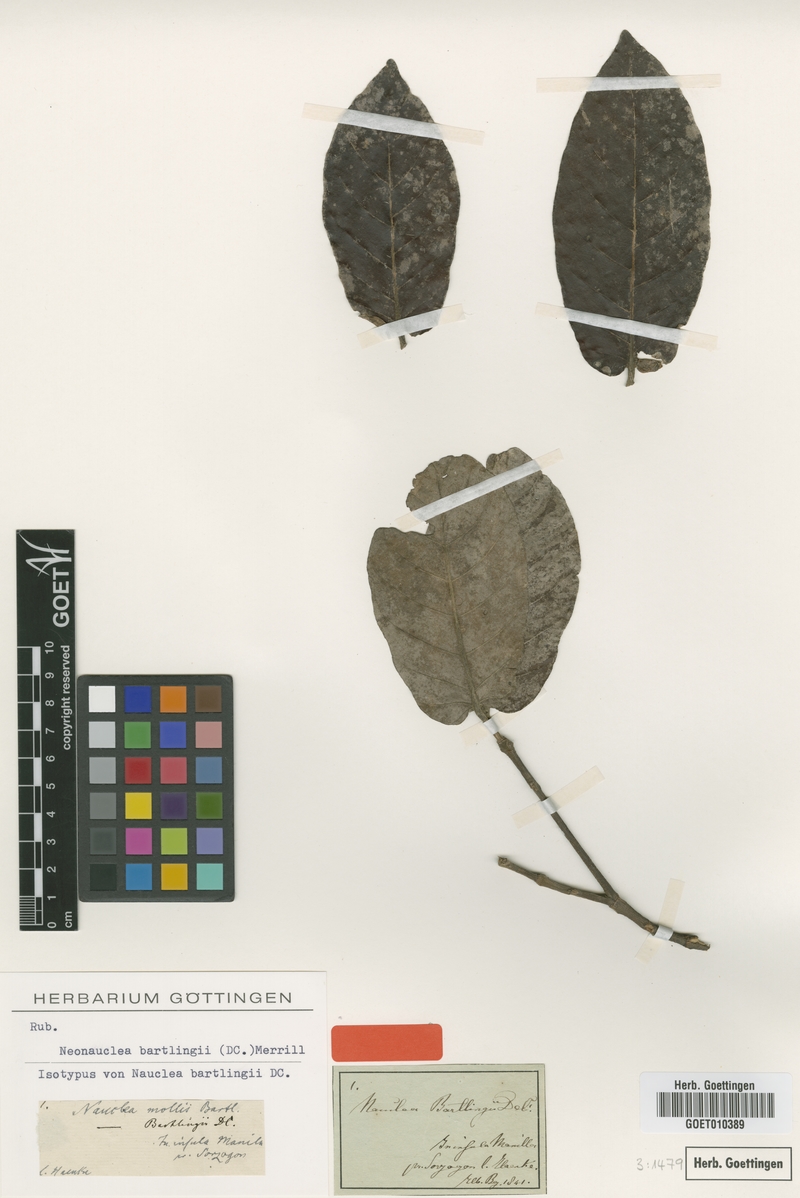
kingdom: Plantae
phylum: Tracheophyta
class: Magnoliopsida
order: Gentianales
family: Rubiaceae
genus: Neonauclea
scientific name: Neonauclea bartlingii
